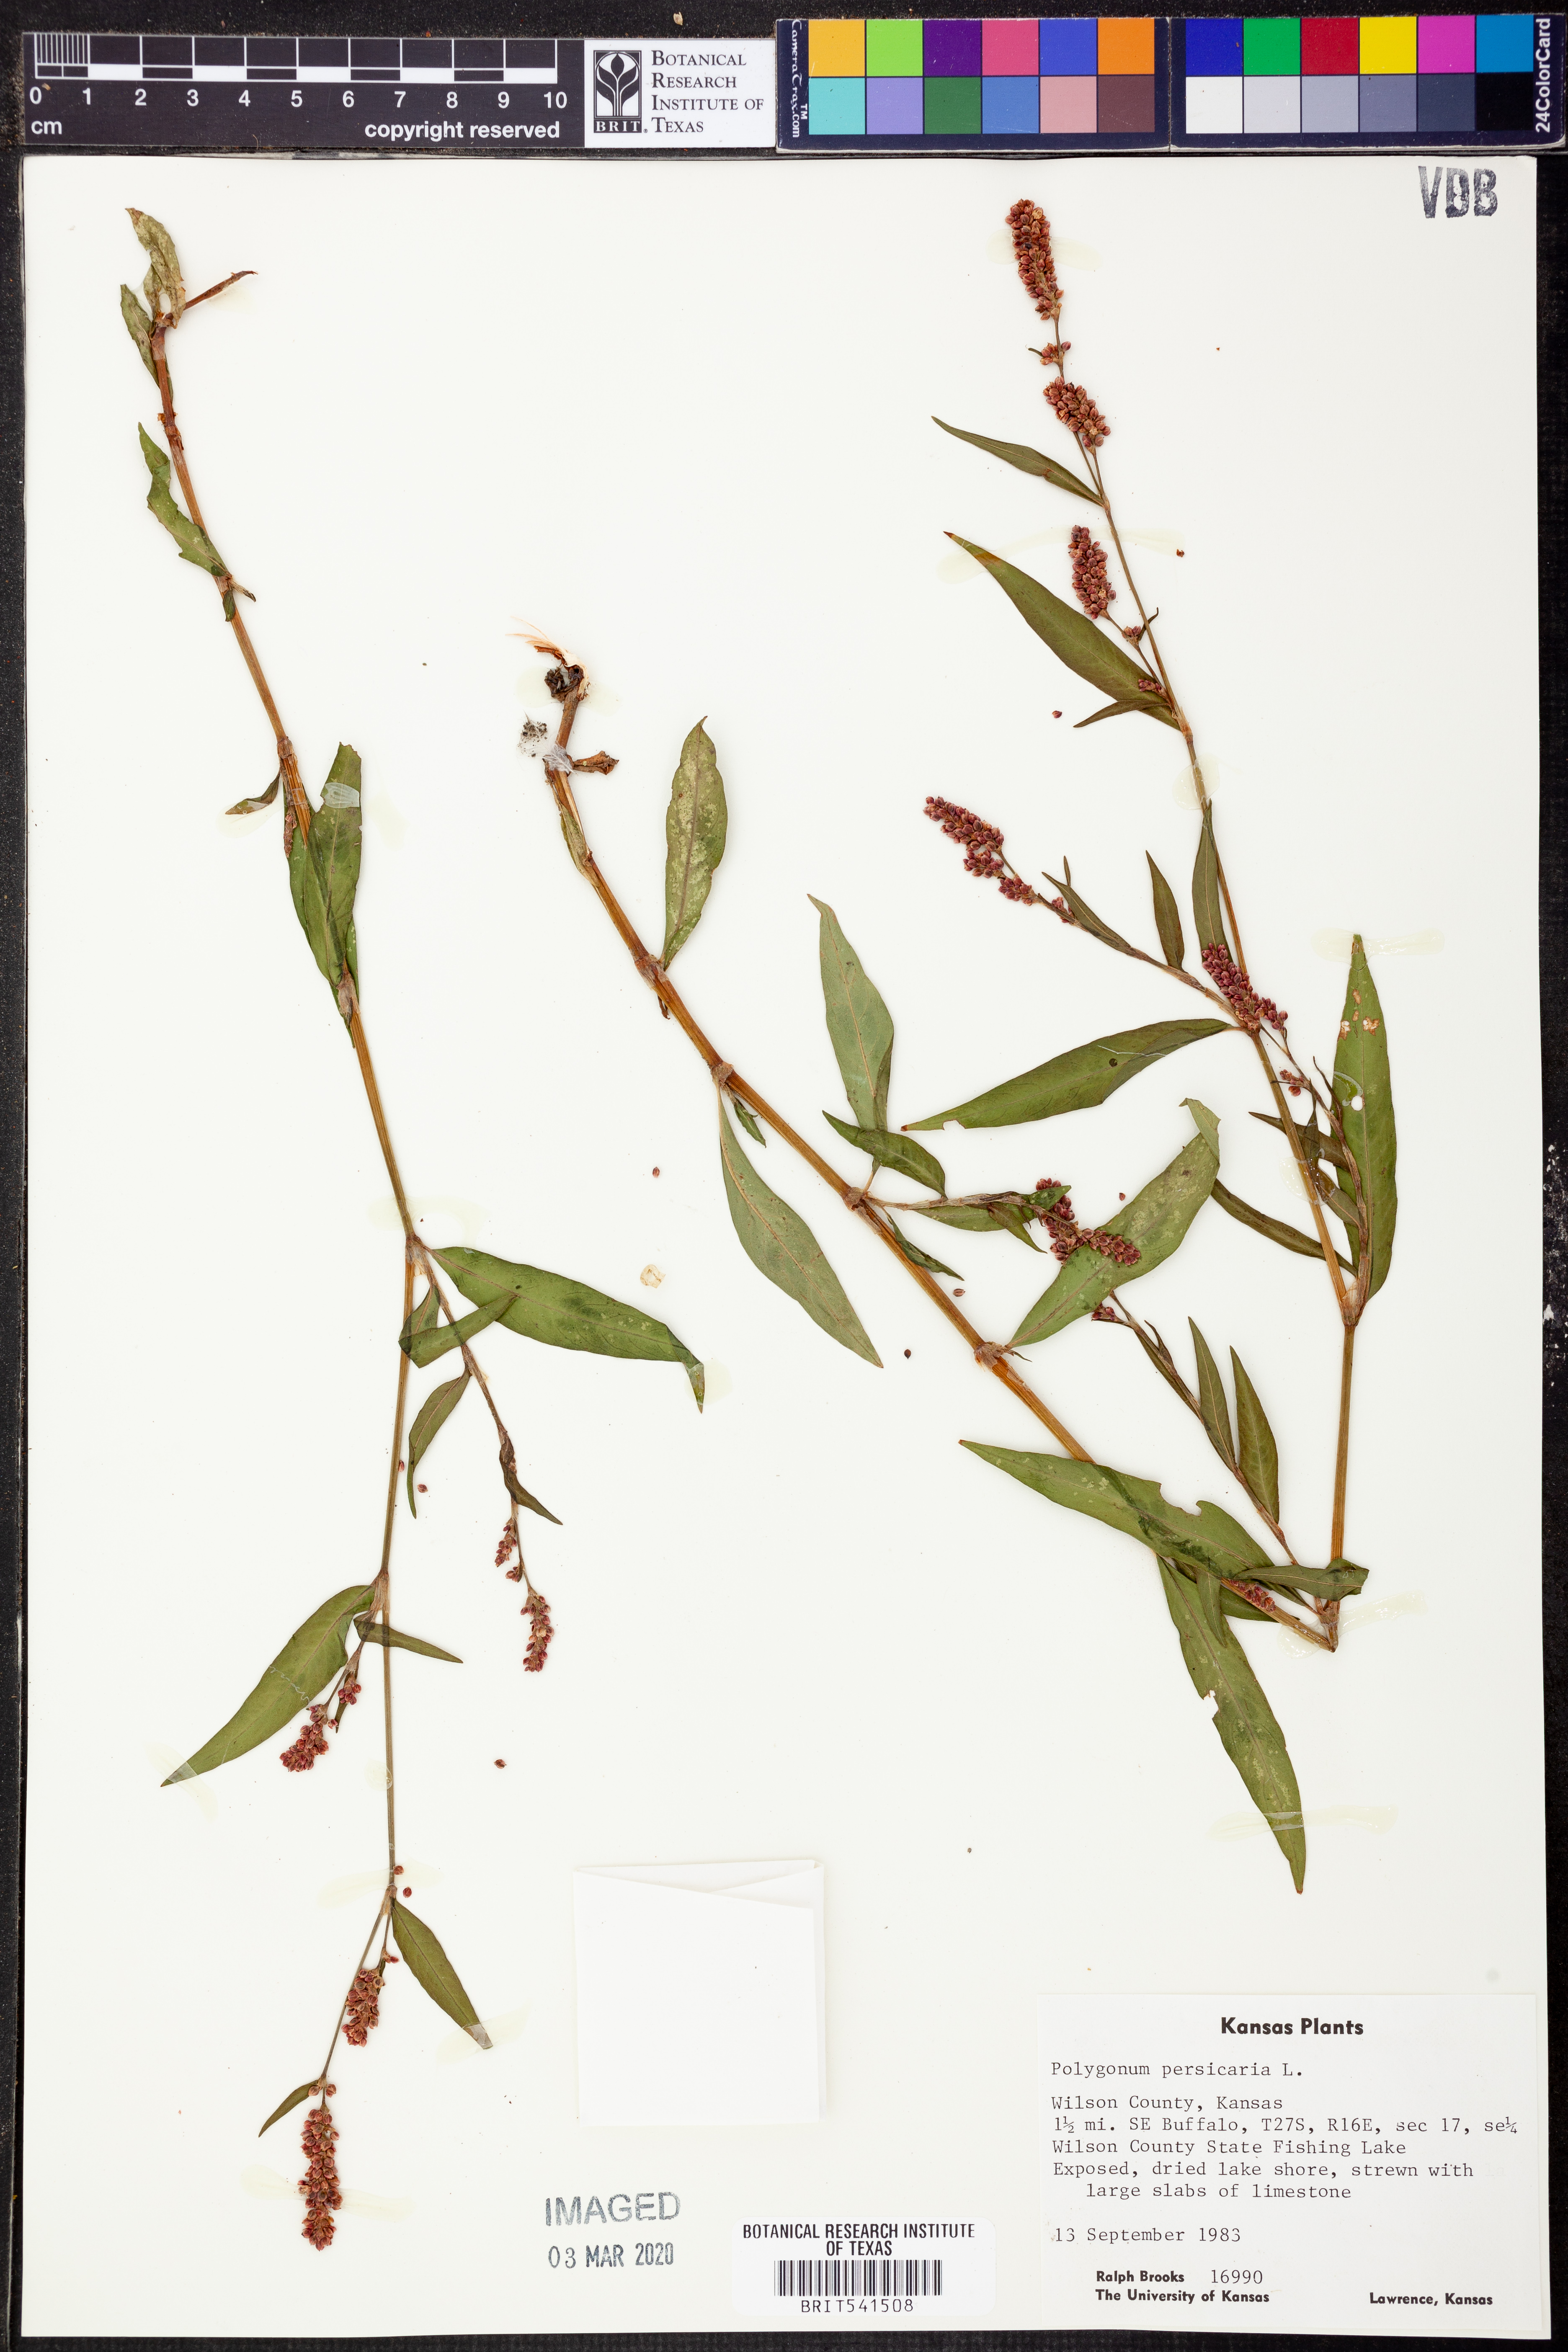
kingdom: Plantae
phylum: Tracheophyta
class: Magnoliopsida
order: Caryophyllales
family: Polygonaceae
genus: Persicaria
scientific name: Persicaria maculosa
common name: Redshank
